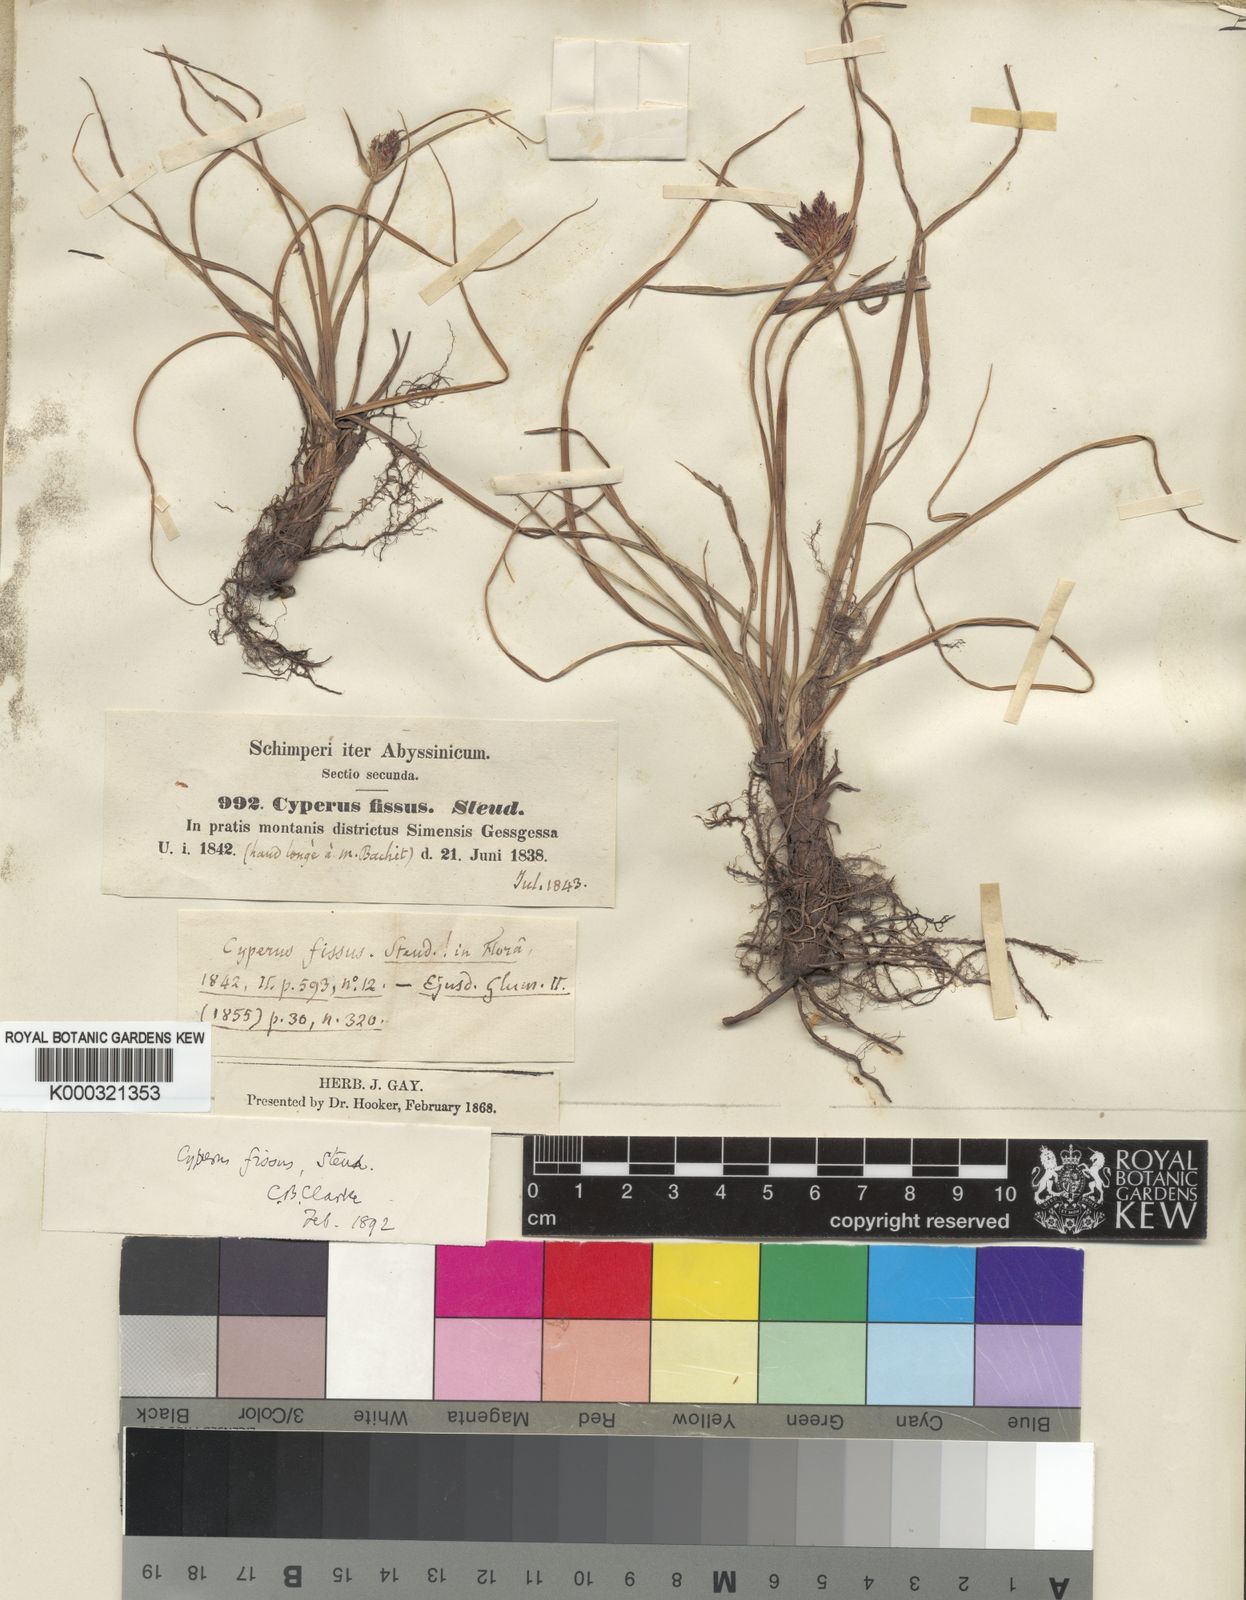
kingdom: Plantae
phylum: Tracheophyta
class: Liliopsida
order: Poales
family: Cyperaceae
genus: Cyperus
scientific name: Cyperus fissus
